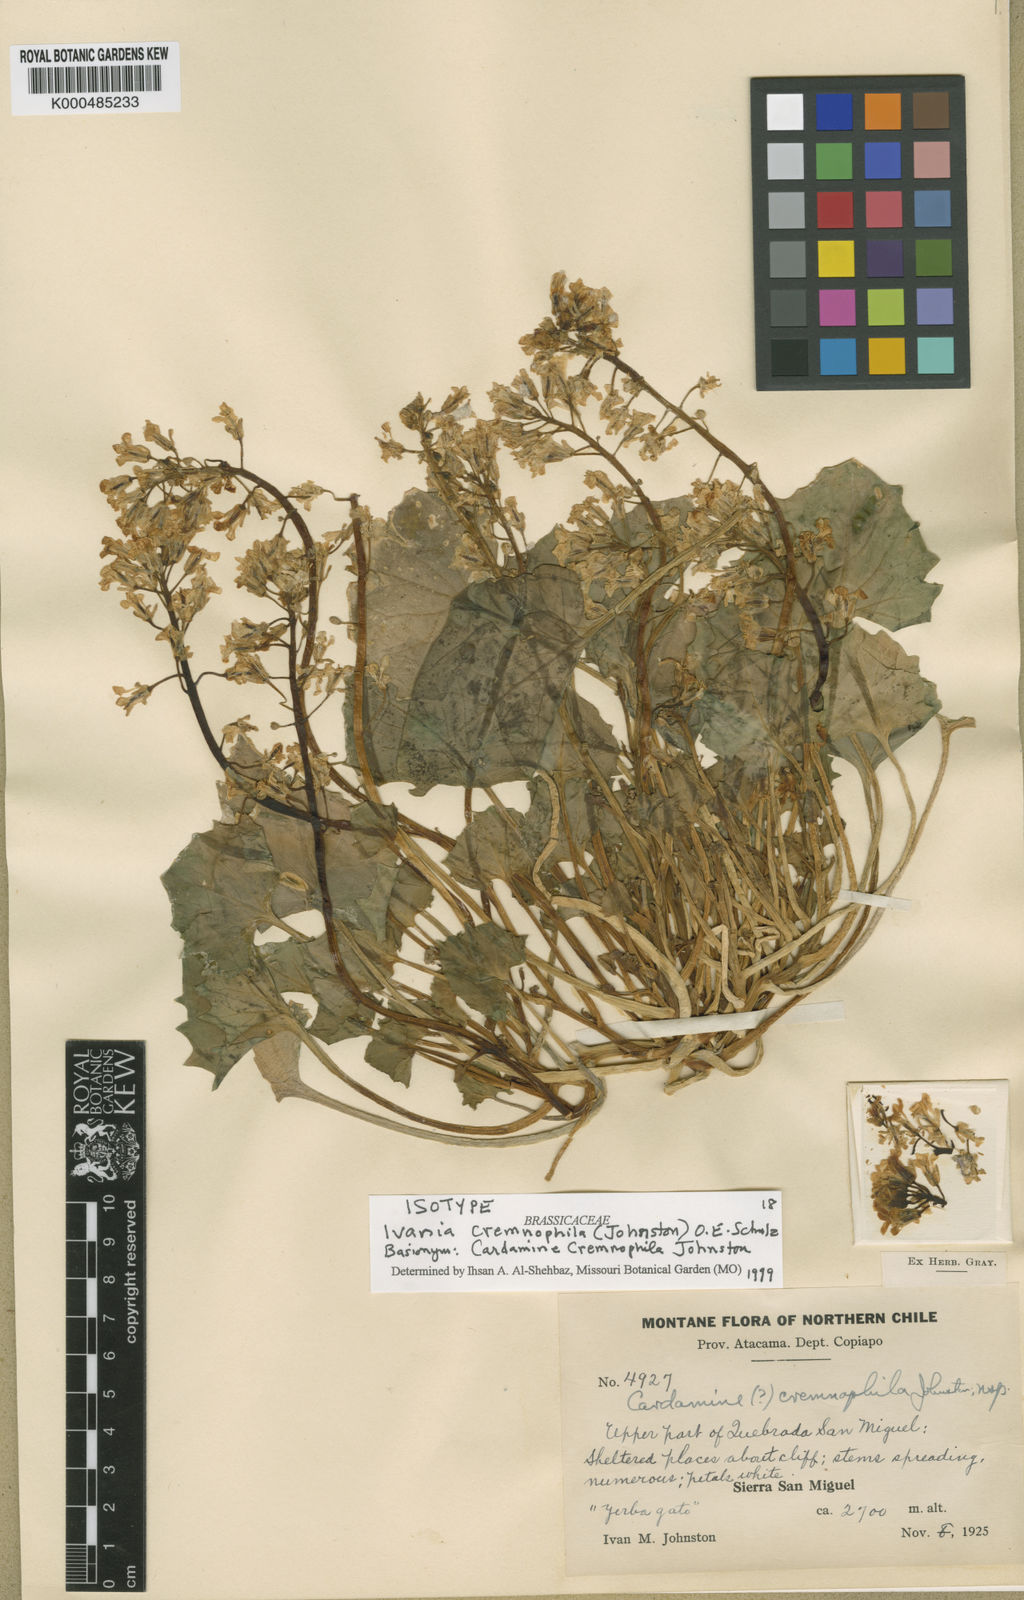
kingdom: Plantae
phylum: Tracheophyta
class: Magnoliopsida
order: Brassicales
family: Brassicaceae
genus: Ivania
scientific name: Ivania cremnophila
